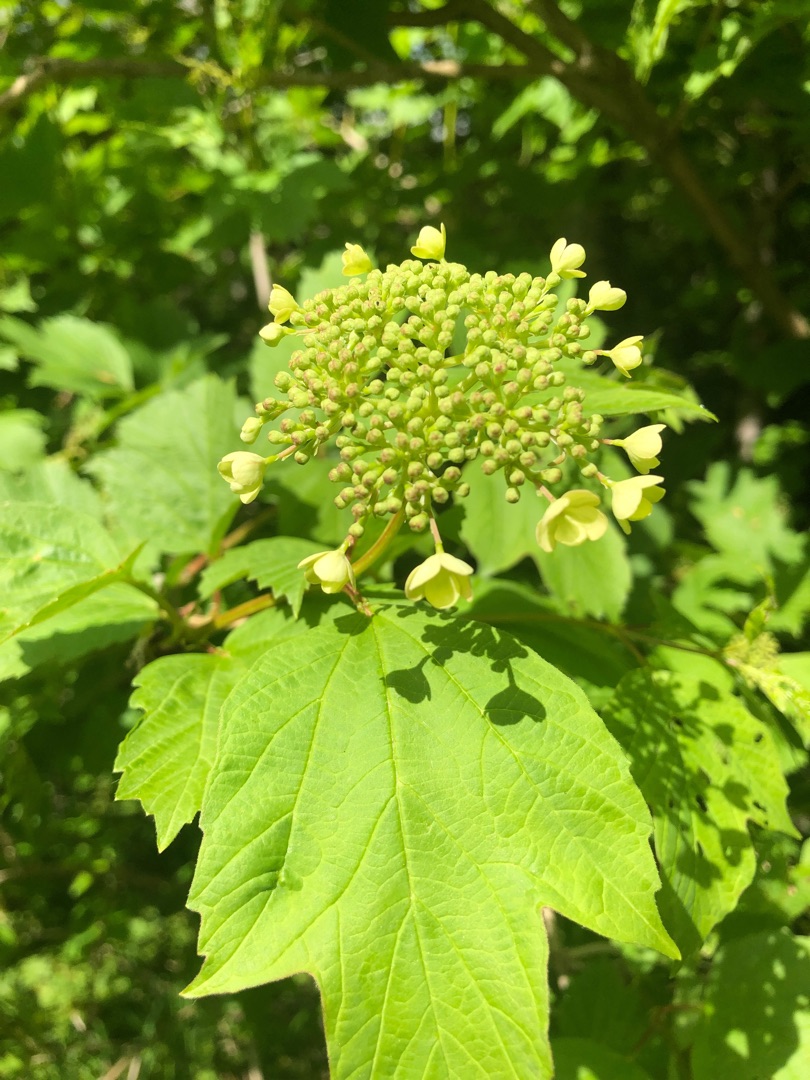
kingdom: Plantae
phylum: Tracheophyta
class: Magnoliopsida
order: Dipsacales
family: Viburnaceae
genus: Viburnum
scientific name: Viburnum opulus
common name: Kvalkved
